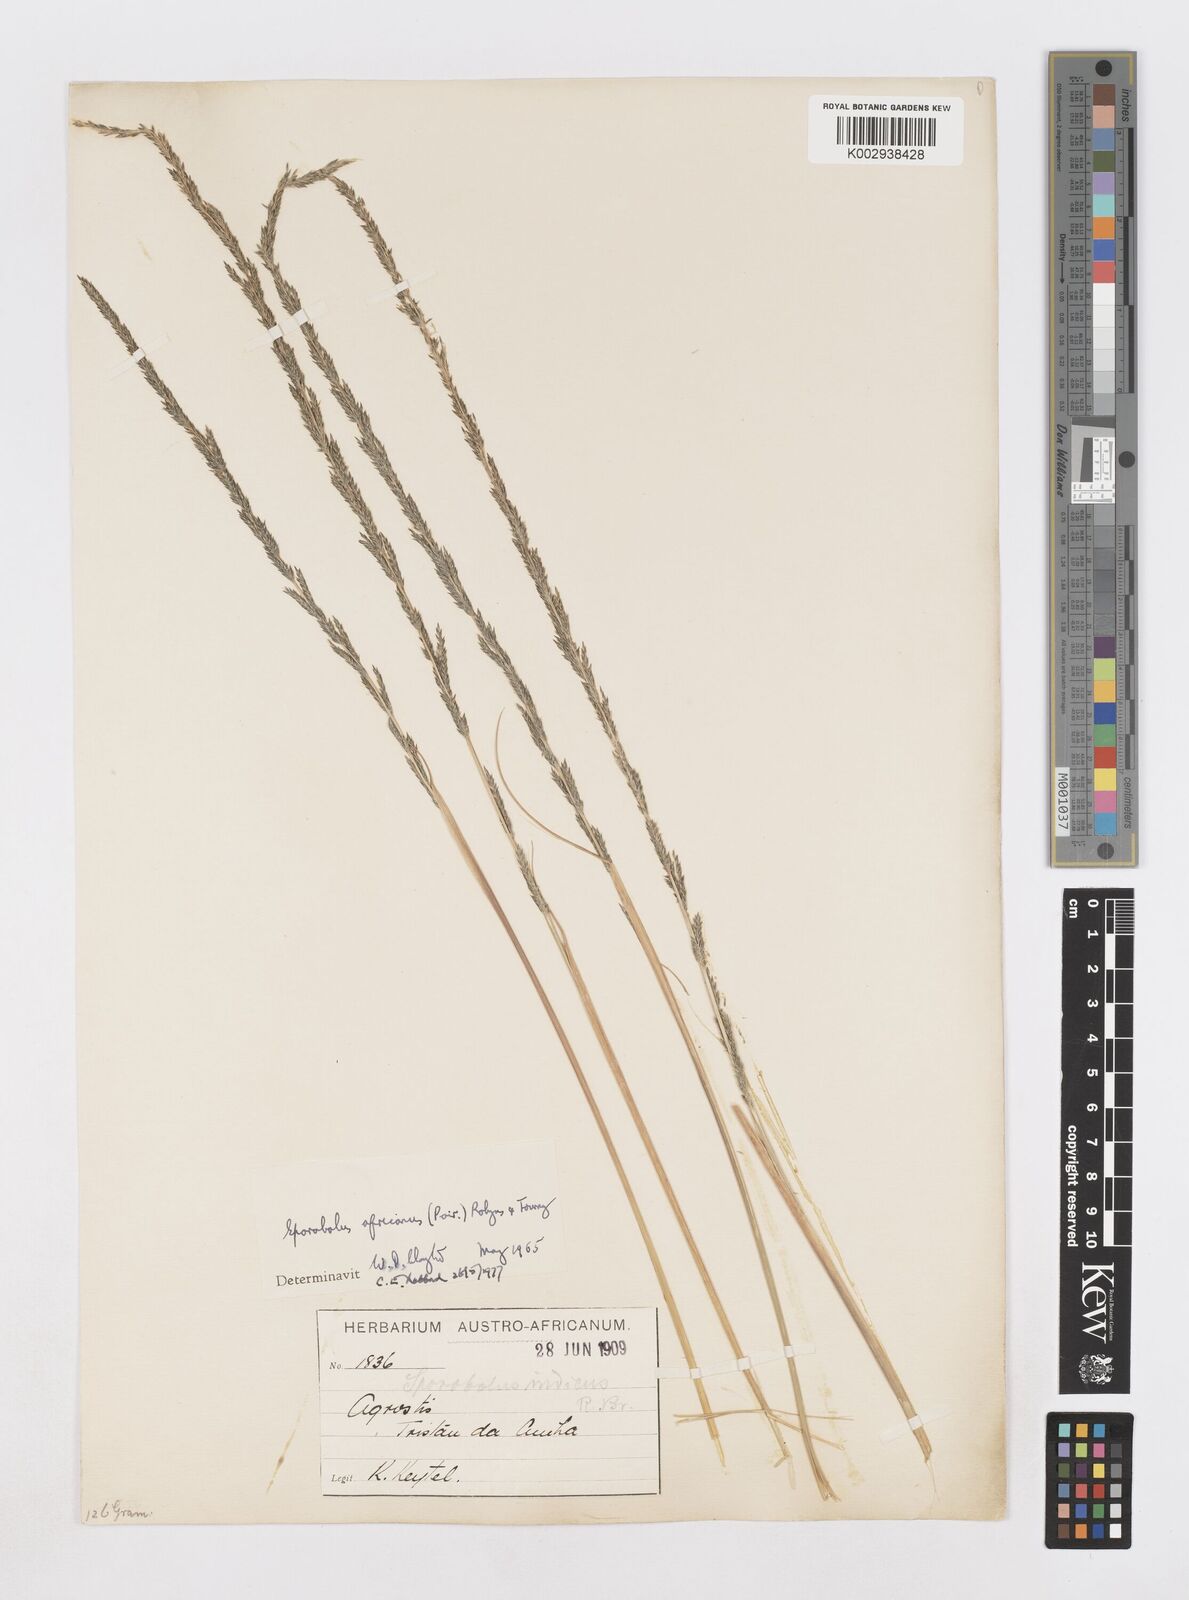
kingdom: Plantae
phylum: Tracheophyta
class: Liliopsida
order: Poales
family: Poaceae
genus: Sporobolus
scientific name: Sporobolus africanus
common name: African dropseed
